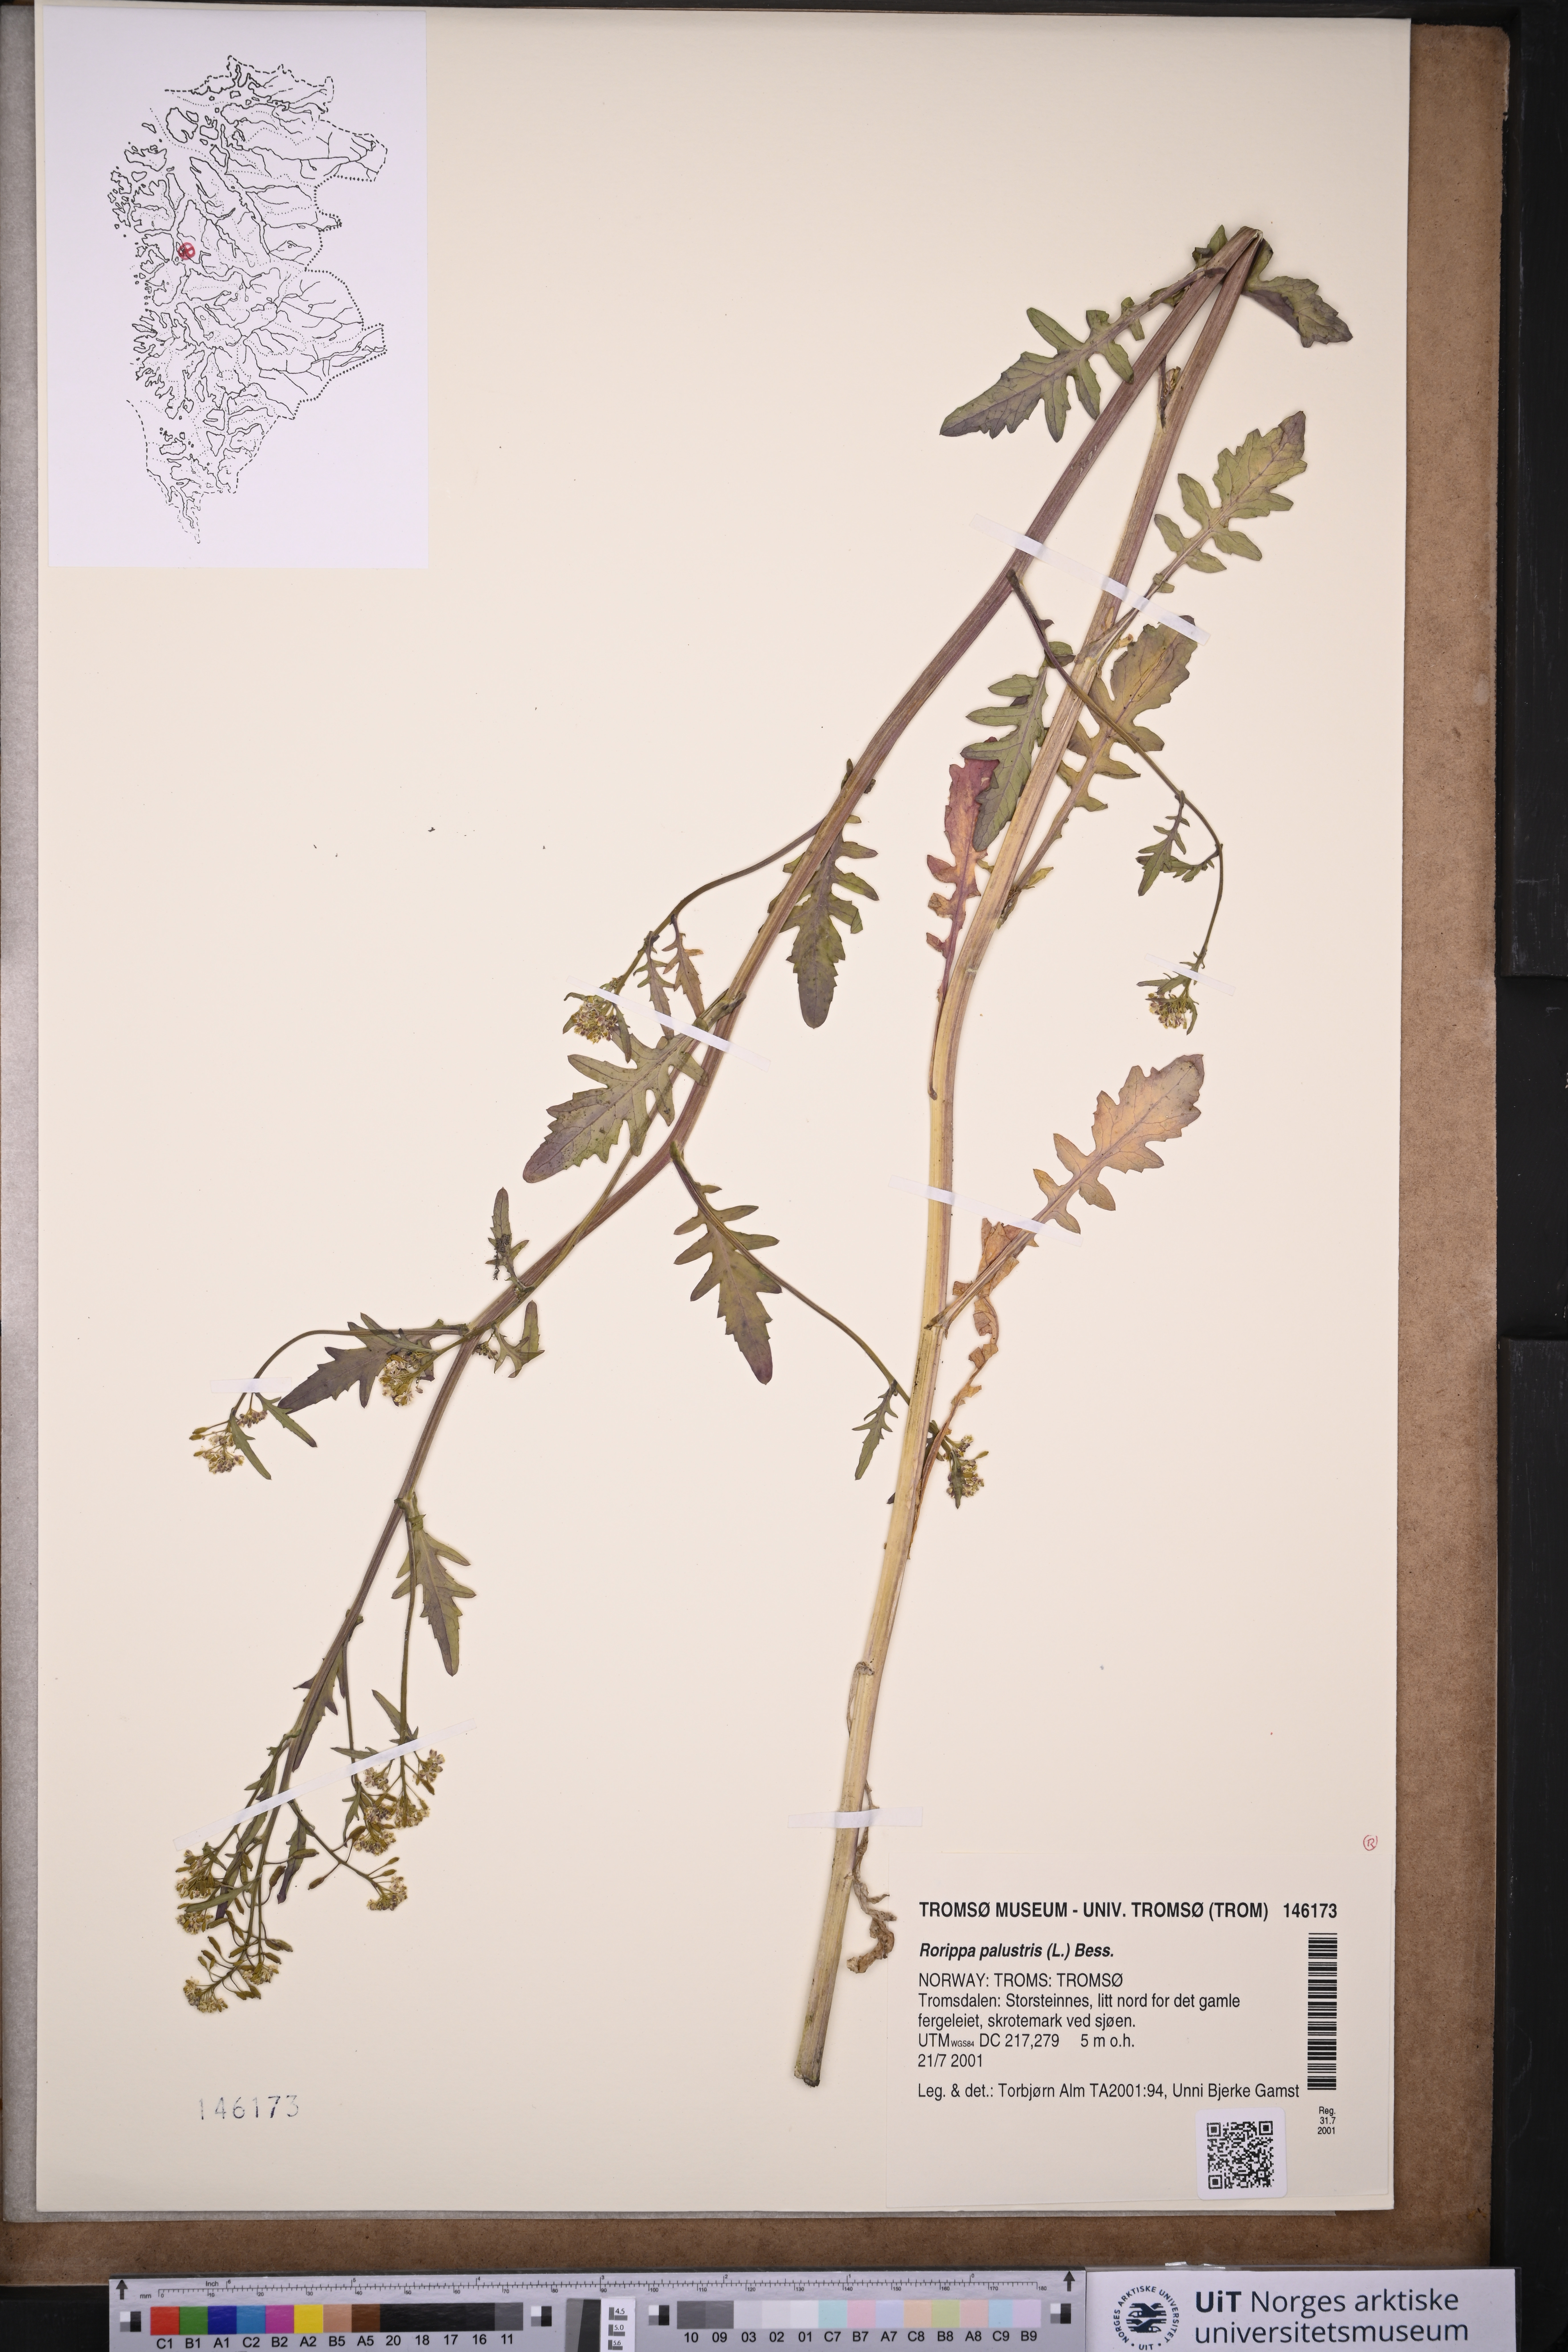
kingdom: Plantae
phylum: Tracheophyta
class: Magnoliopsida
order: Brassicales
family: Brassicaceae
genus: Rorippa
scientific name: Rorippa palustris
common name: Marsh yellow-cress
